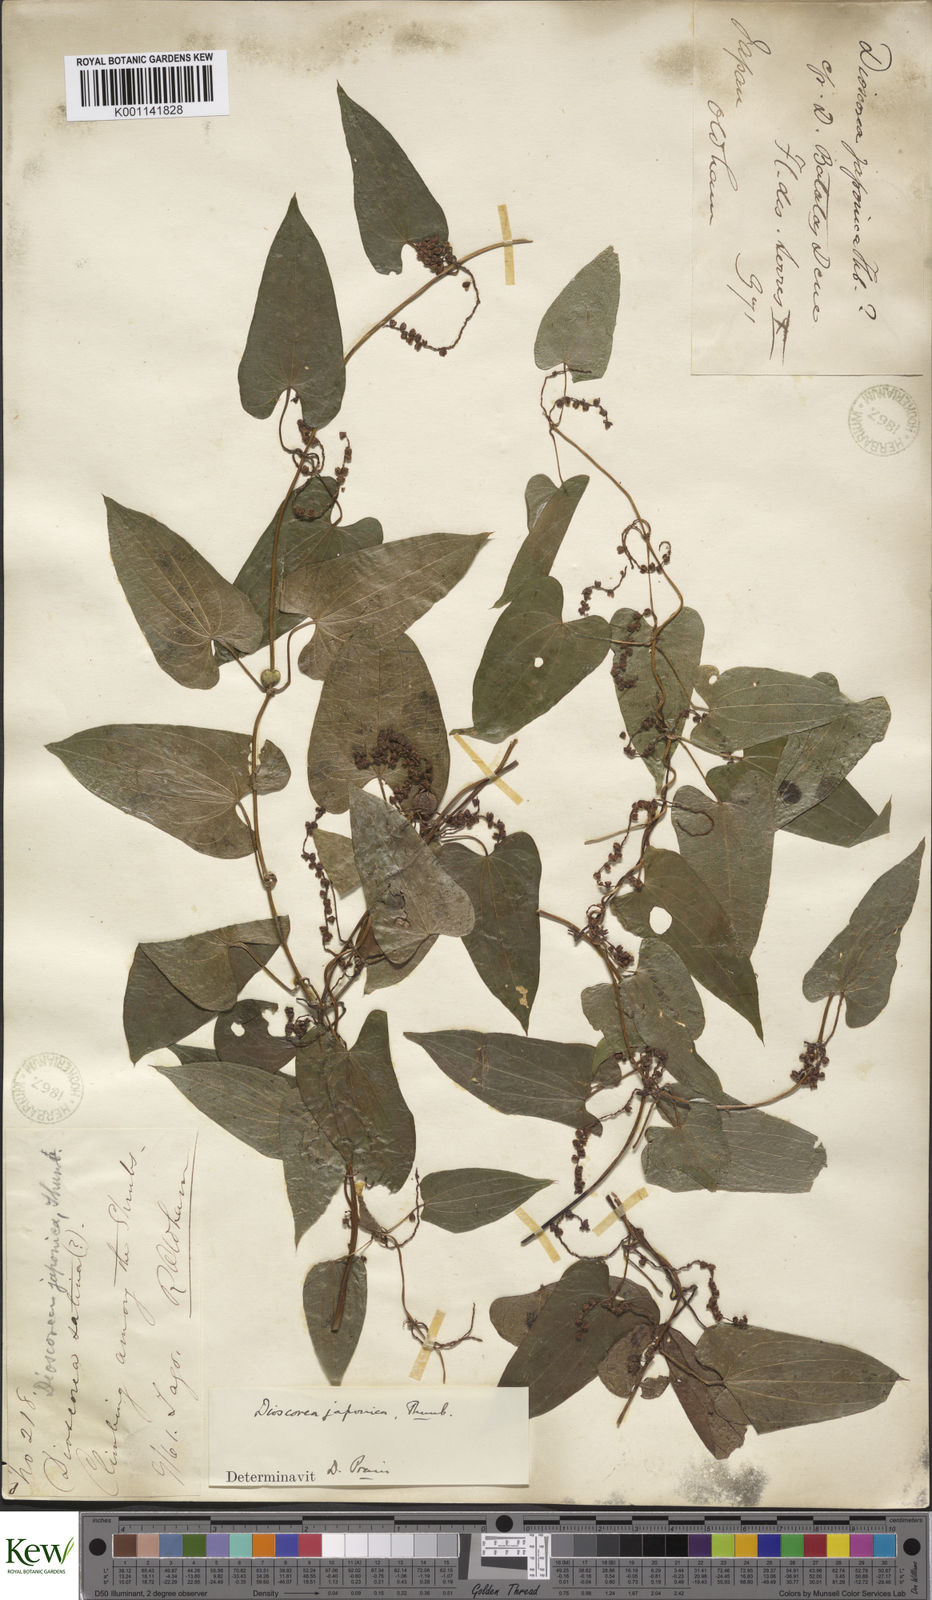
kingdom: Plantae
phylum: Tracheophyta
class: Liliopsida
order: Dioscoreales
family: Dioscoreaceae
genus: Dioscorea
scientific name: Dioscorea japonica
